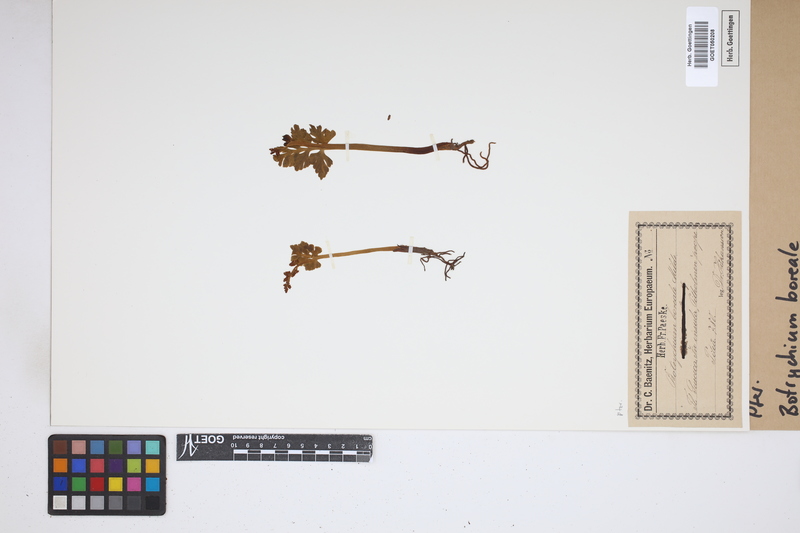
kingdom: Plantae
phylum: Tracheophyta
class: Polypodiopsida
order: Ophioglossales
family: Ophioglossaceae
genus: Botrychium
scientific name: Botrychium boreale
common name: Boreal moonwort
